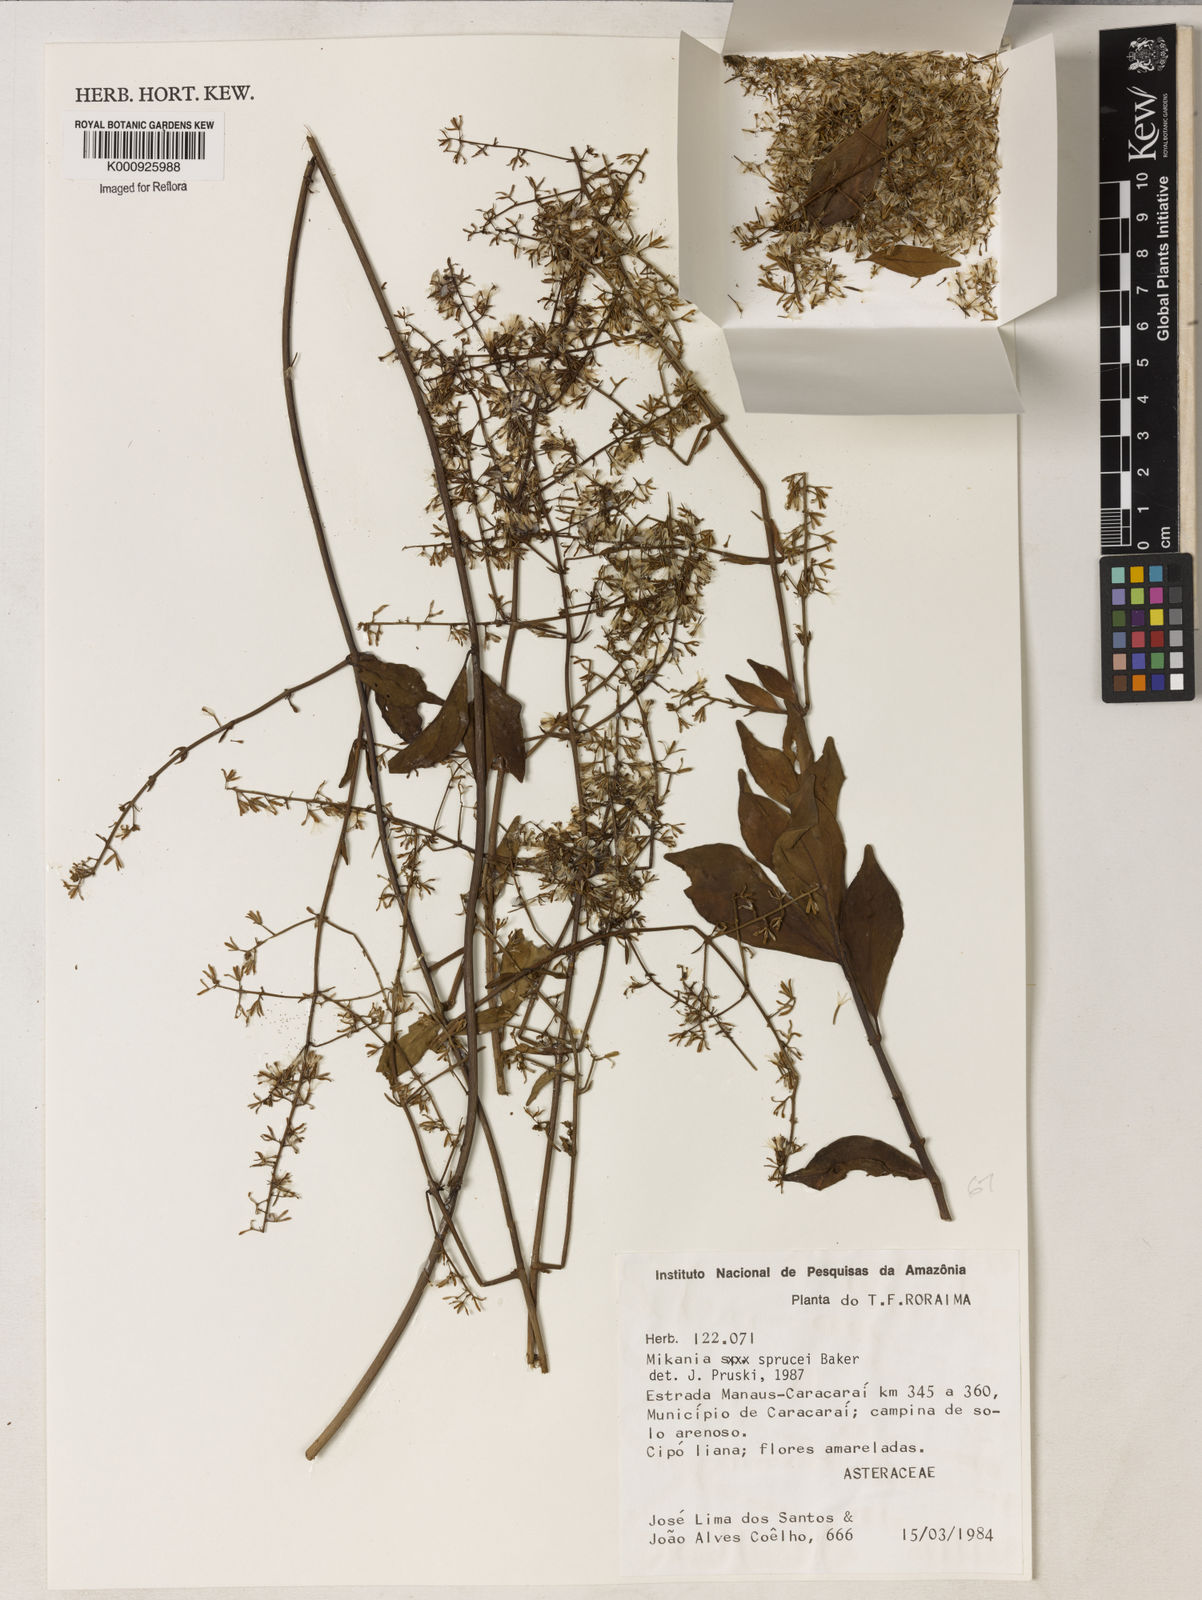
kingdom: Plantae
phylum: Tracheophyta
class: Magnoliopsida
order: Asterales
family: Asteraceae
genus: Mikania
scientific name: Mikania
